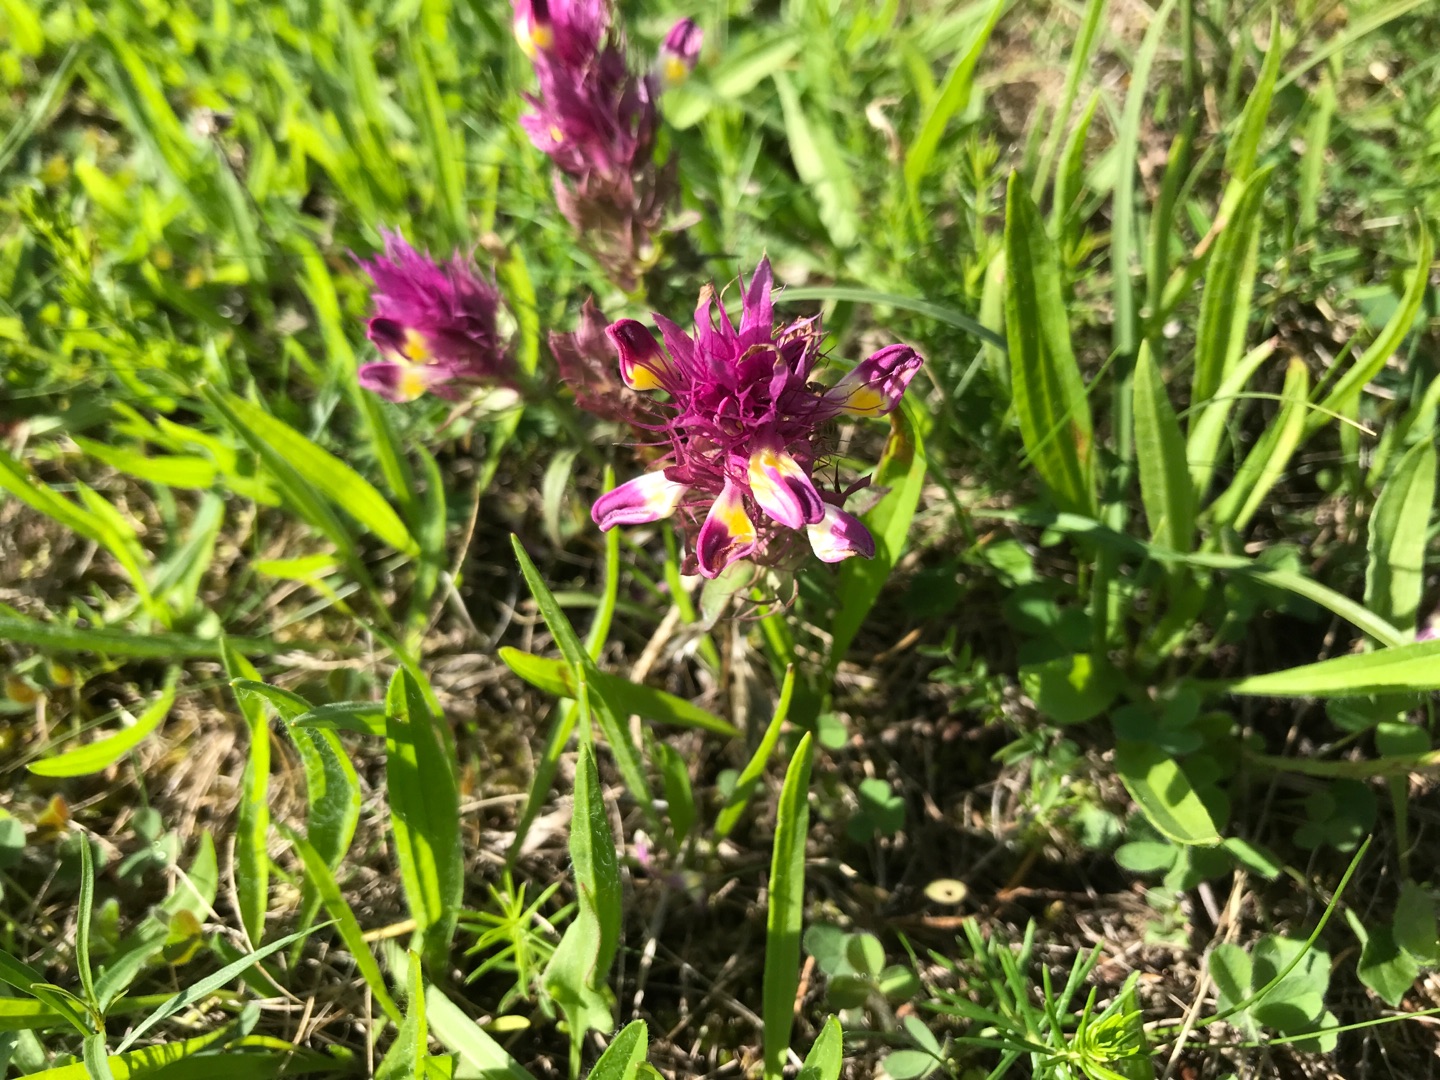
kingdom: Plantae
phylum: Tracheophyta
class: Magnoliopsida
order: Lamiales
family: Orobanchaceae
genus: Melampyrum
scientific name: Melampyrum arvense
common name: Ager-kohvede
